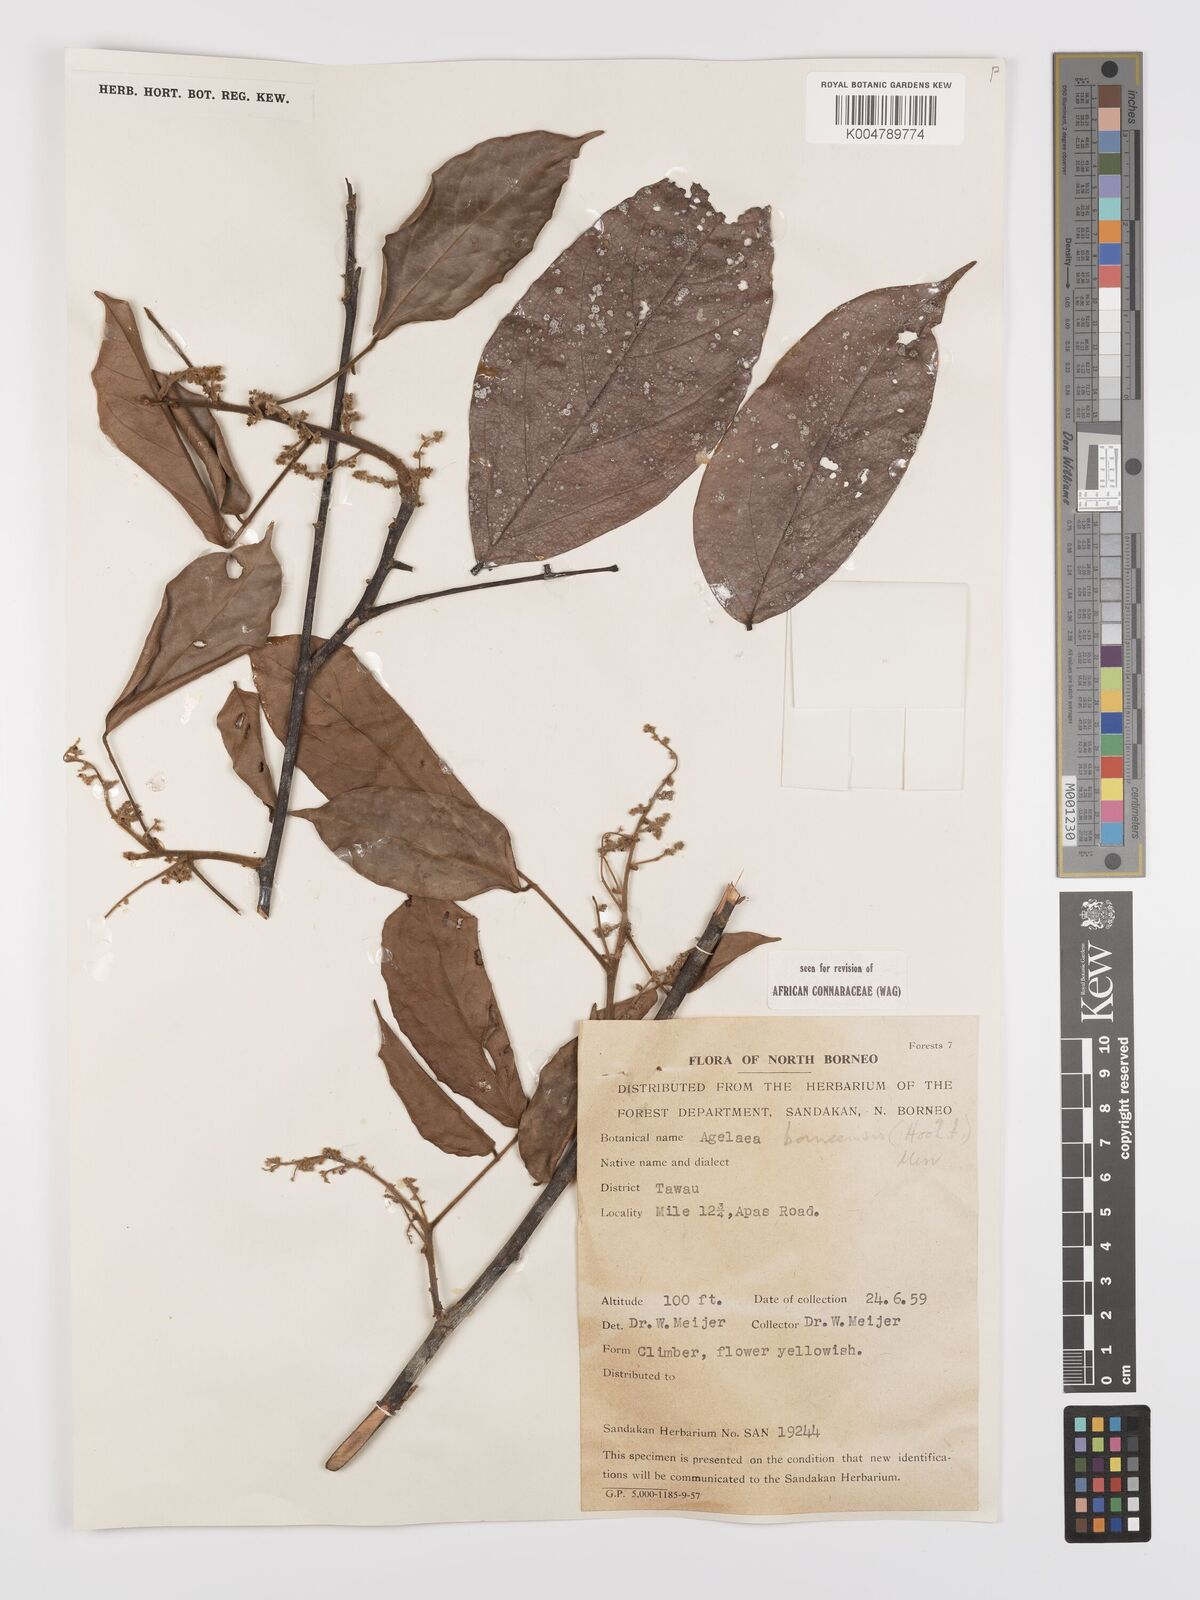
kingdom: Plantae
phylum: Tracheophyta
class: Magnoliopsida
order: Oxalidales
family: Connaraceae
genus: Agelaea
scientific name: Agelaea borneensis
